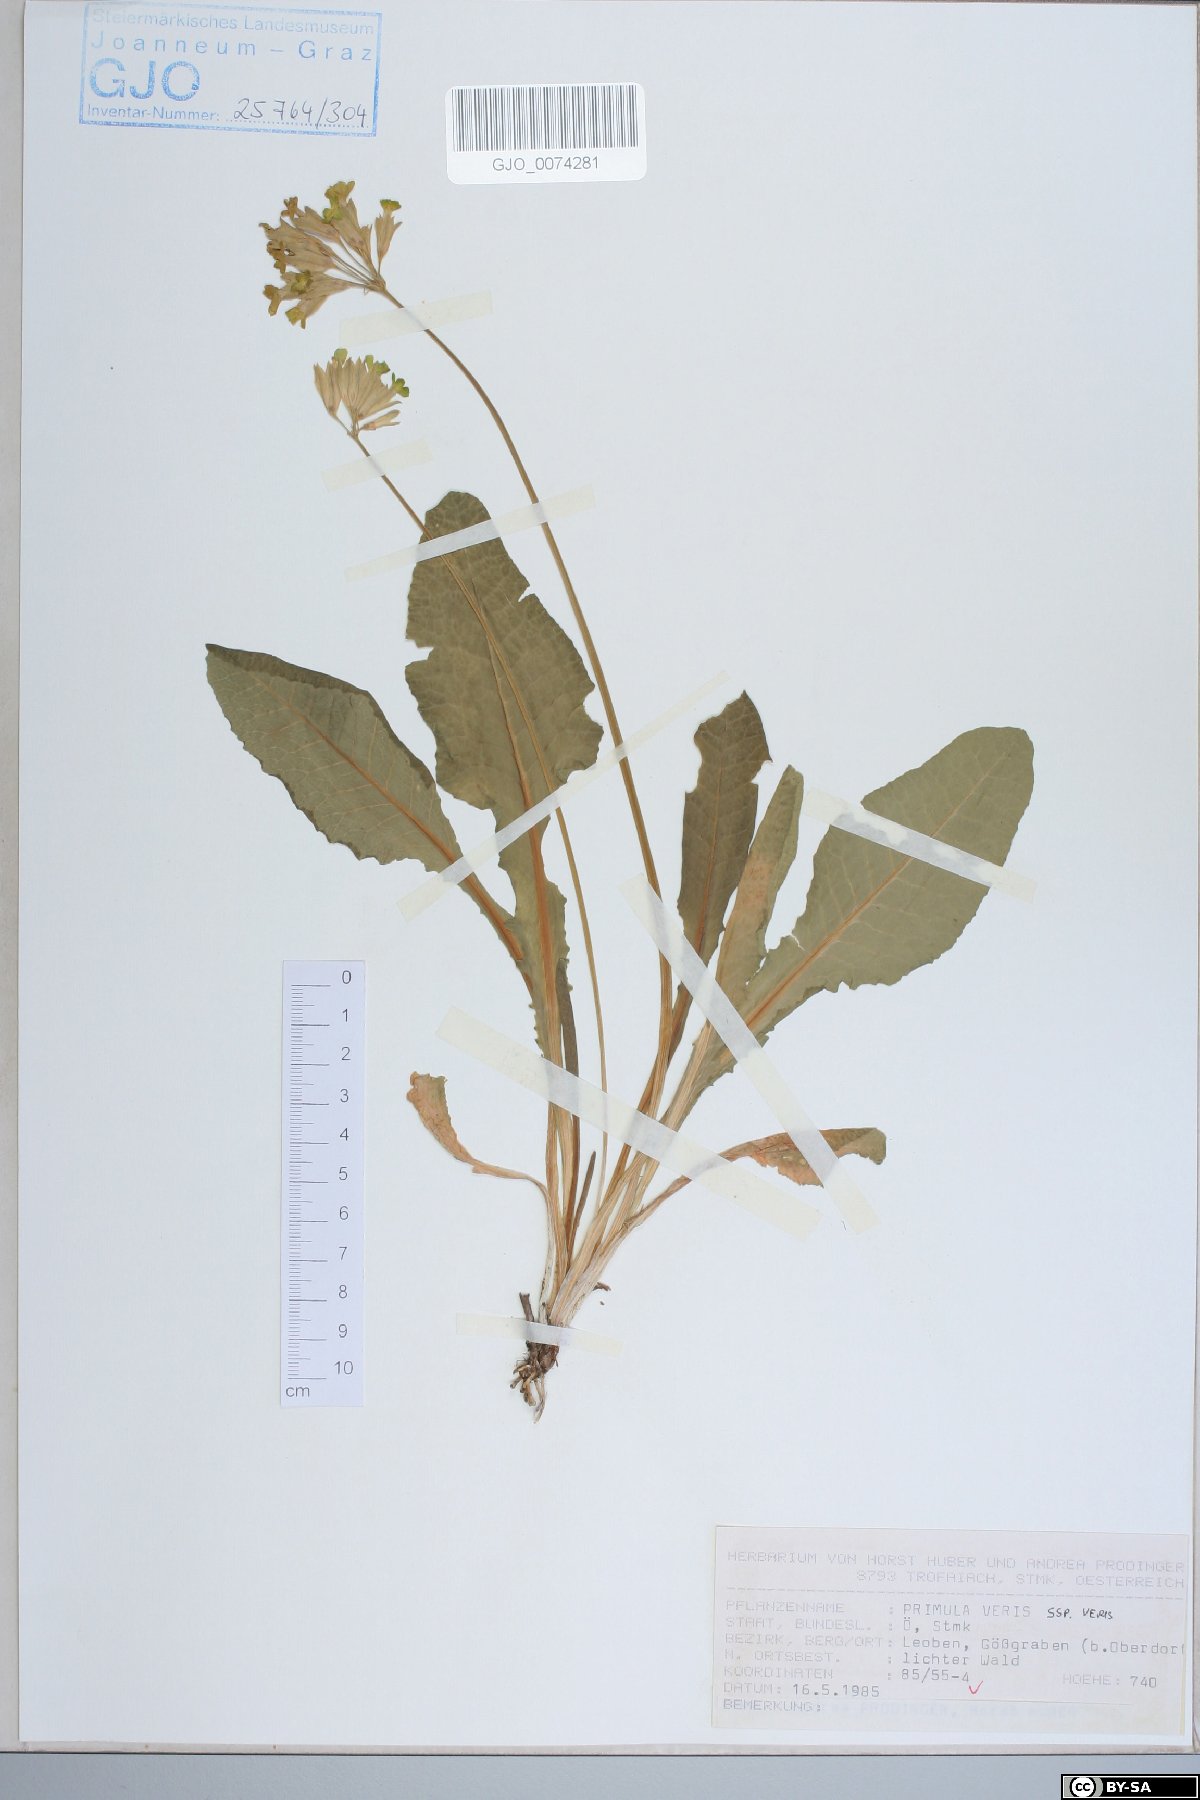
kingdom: Plantae
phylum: Tracheophyta
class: Magnoliopsida
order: Ericales
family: Primulaceae
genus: Primula
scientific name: Primula veris
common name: Cowslip
